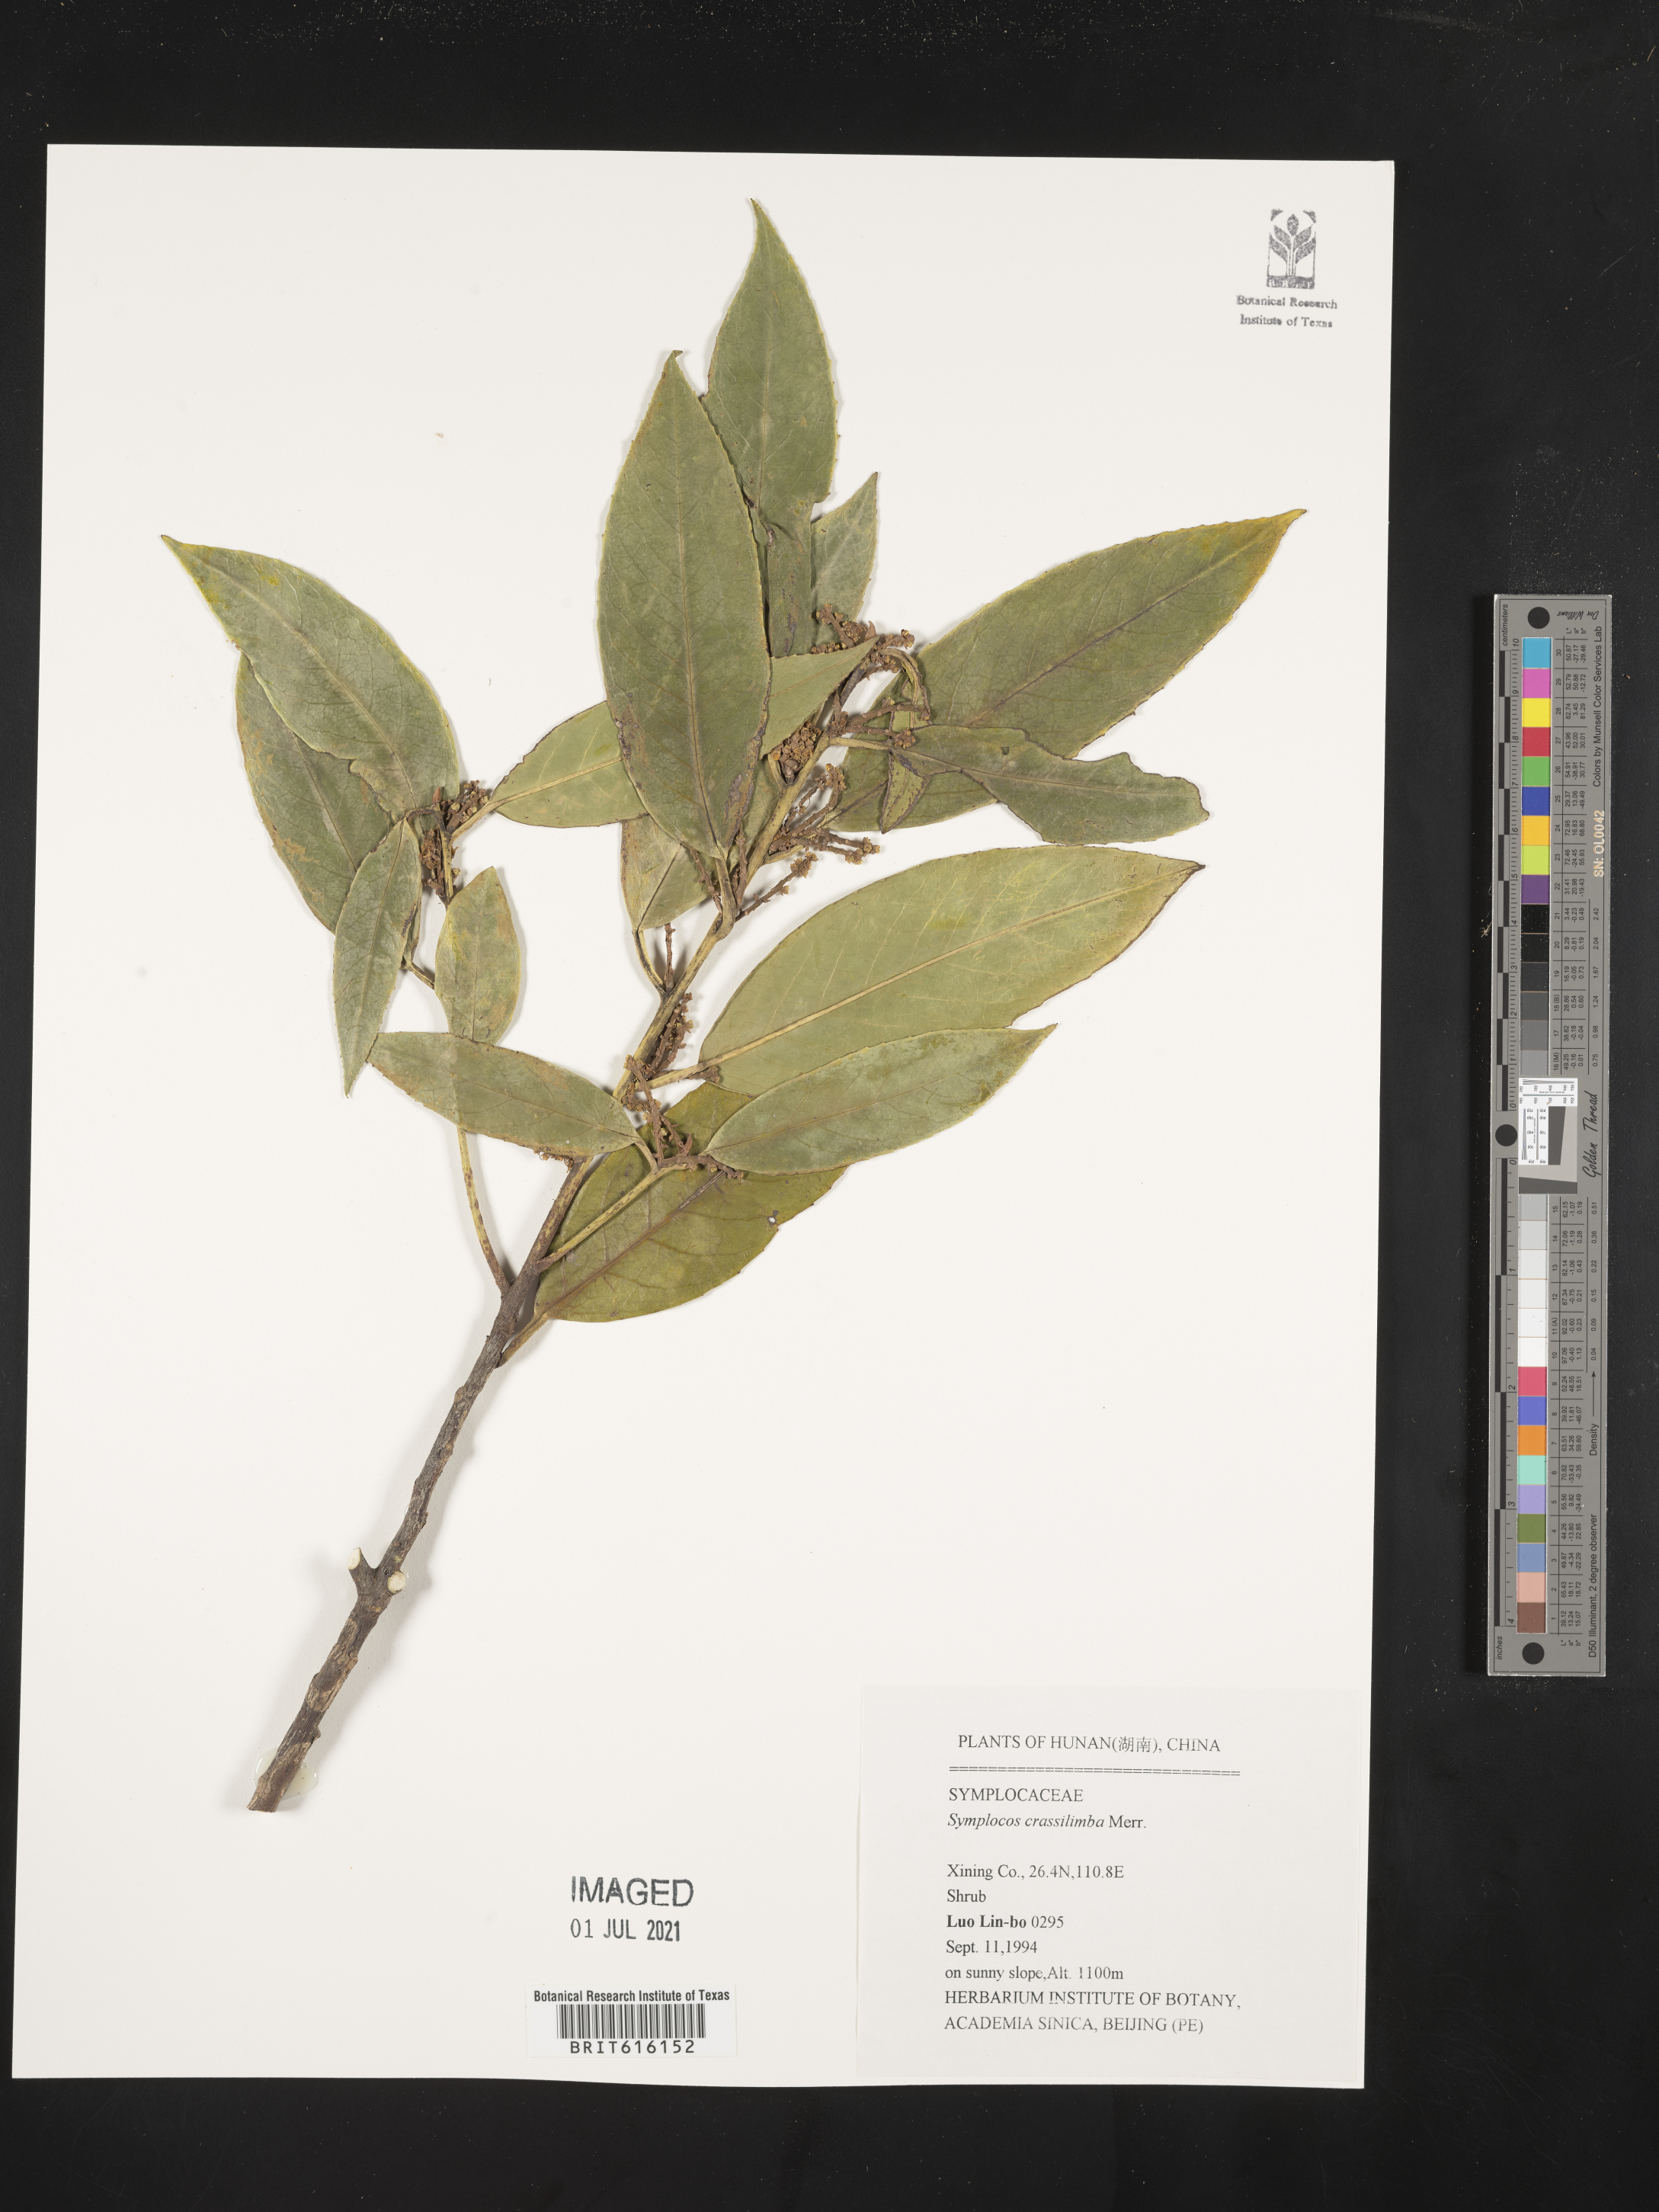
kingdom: Plantae
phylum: Tracheophyta
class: Magnoliopsida
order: Ericales
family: Symplocaceae
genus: Symplocos
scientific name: Symplocos crassilimba
